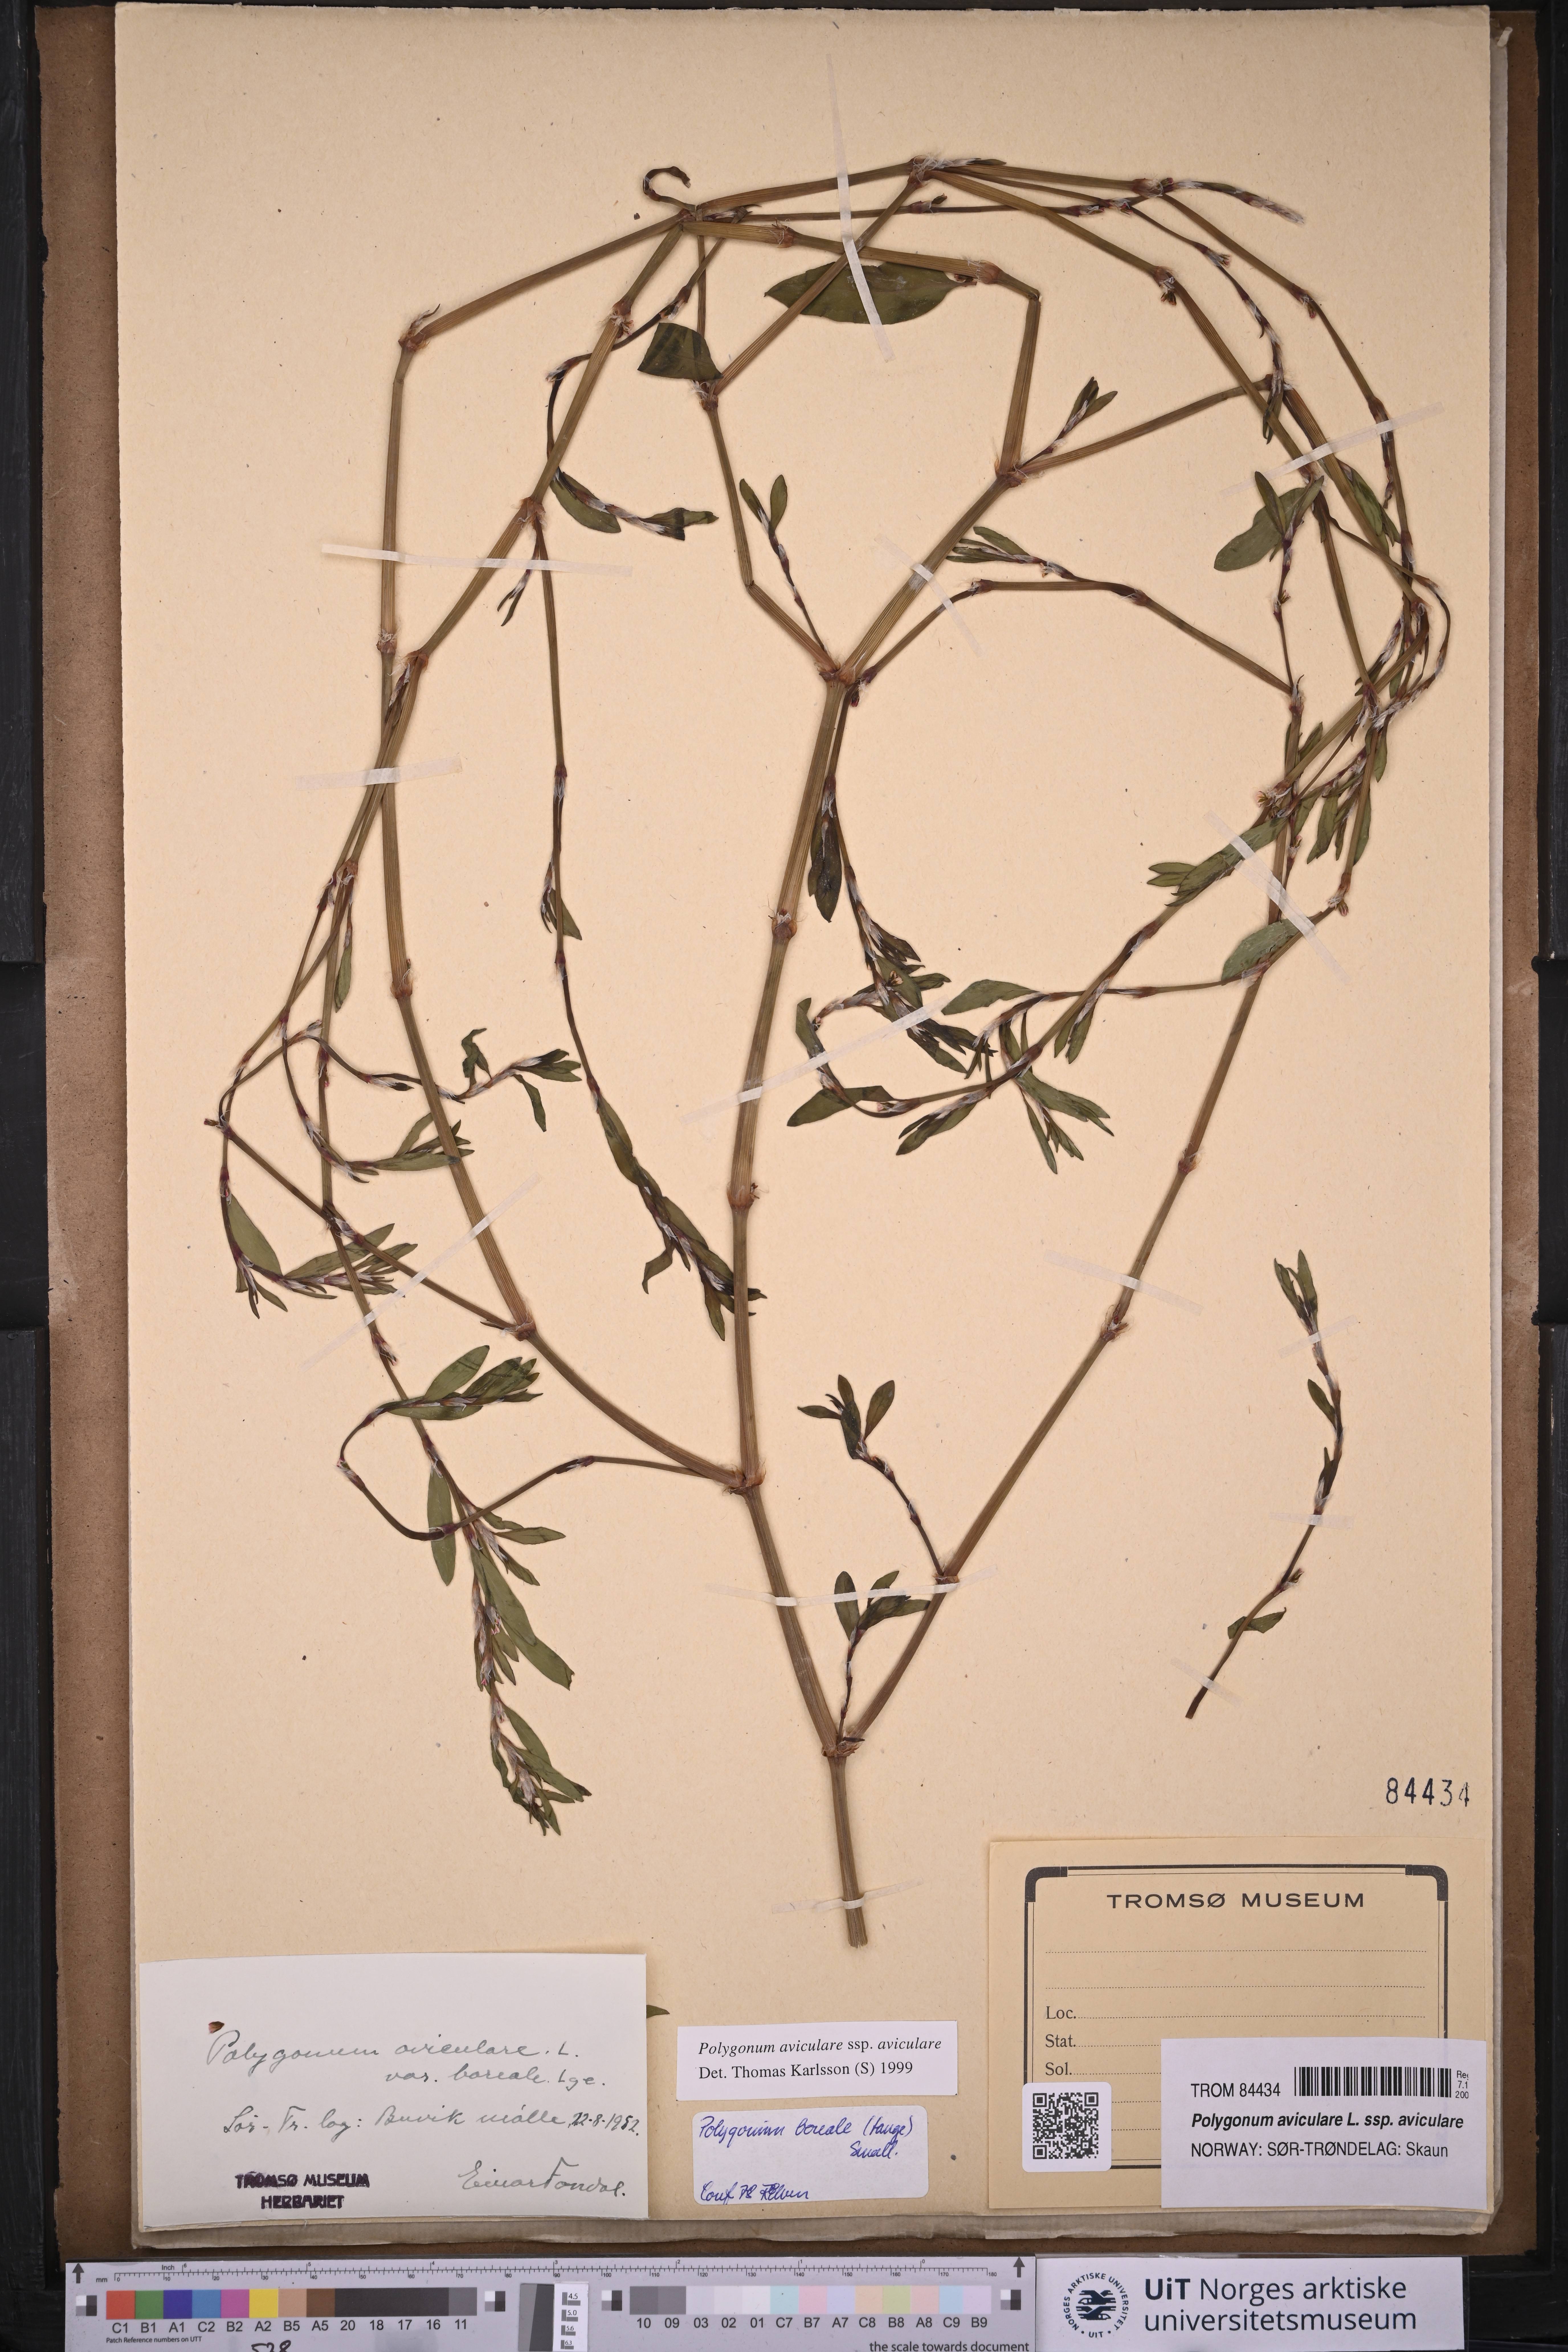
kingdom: Plantae
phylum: Tracheophyta
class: Magnoliopsida
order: Caryophyllales
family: Polygonaceae
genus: Polygonum
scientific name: Polygonum aviculare
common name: Prostrate knotweed
